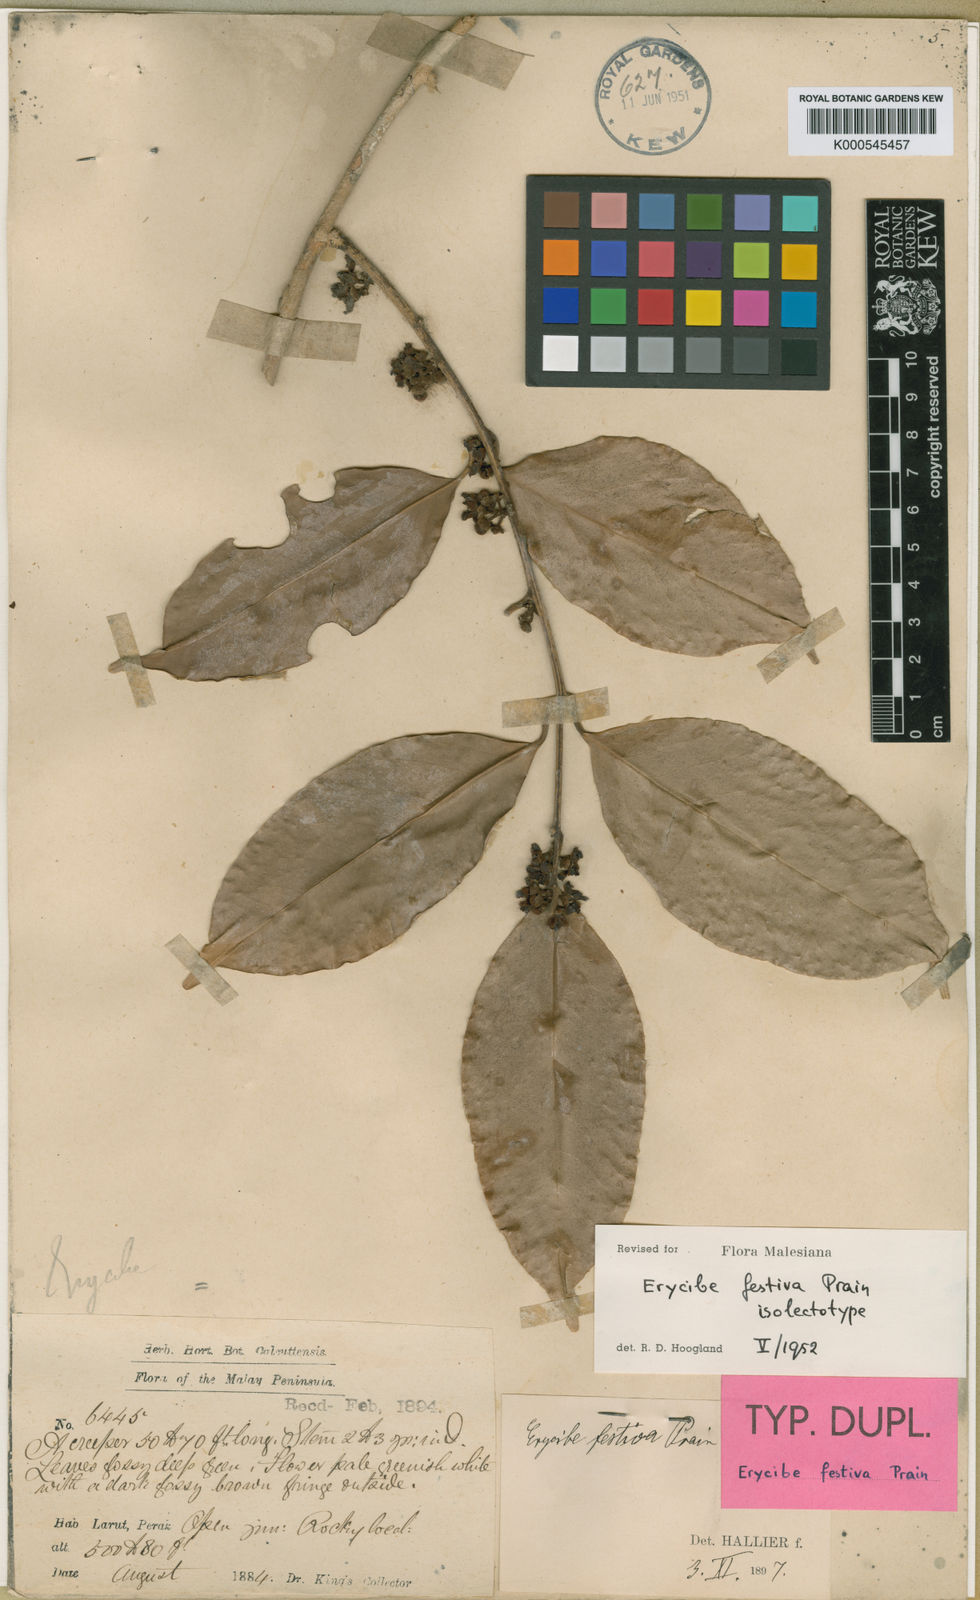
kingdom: Plantae
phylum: Tracheophyta
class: Magnoliopsida
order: Solanales
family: Convolvulaceae
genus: Erycibe
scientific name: Erycibe festiva
